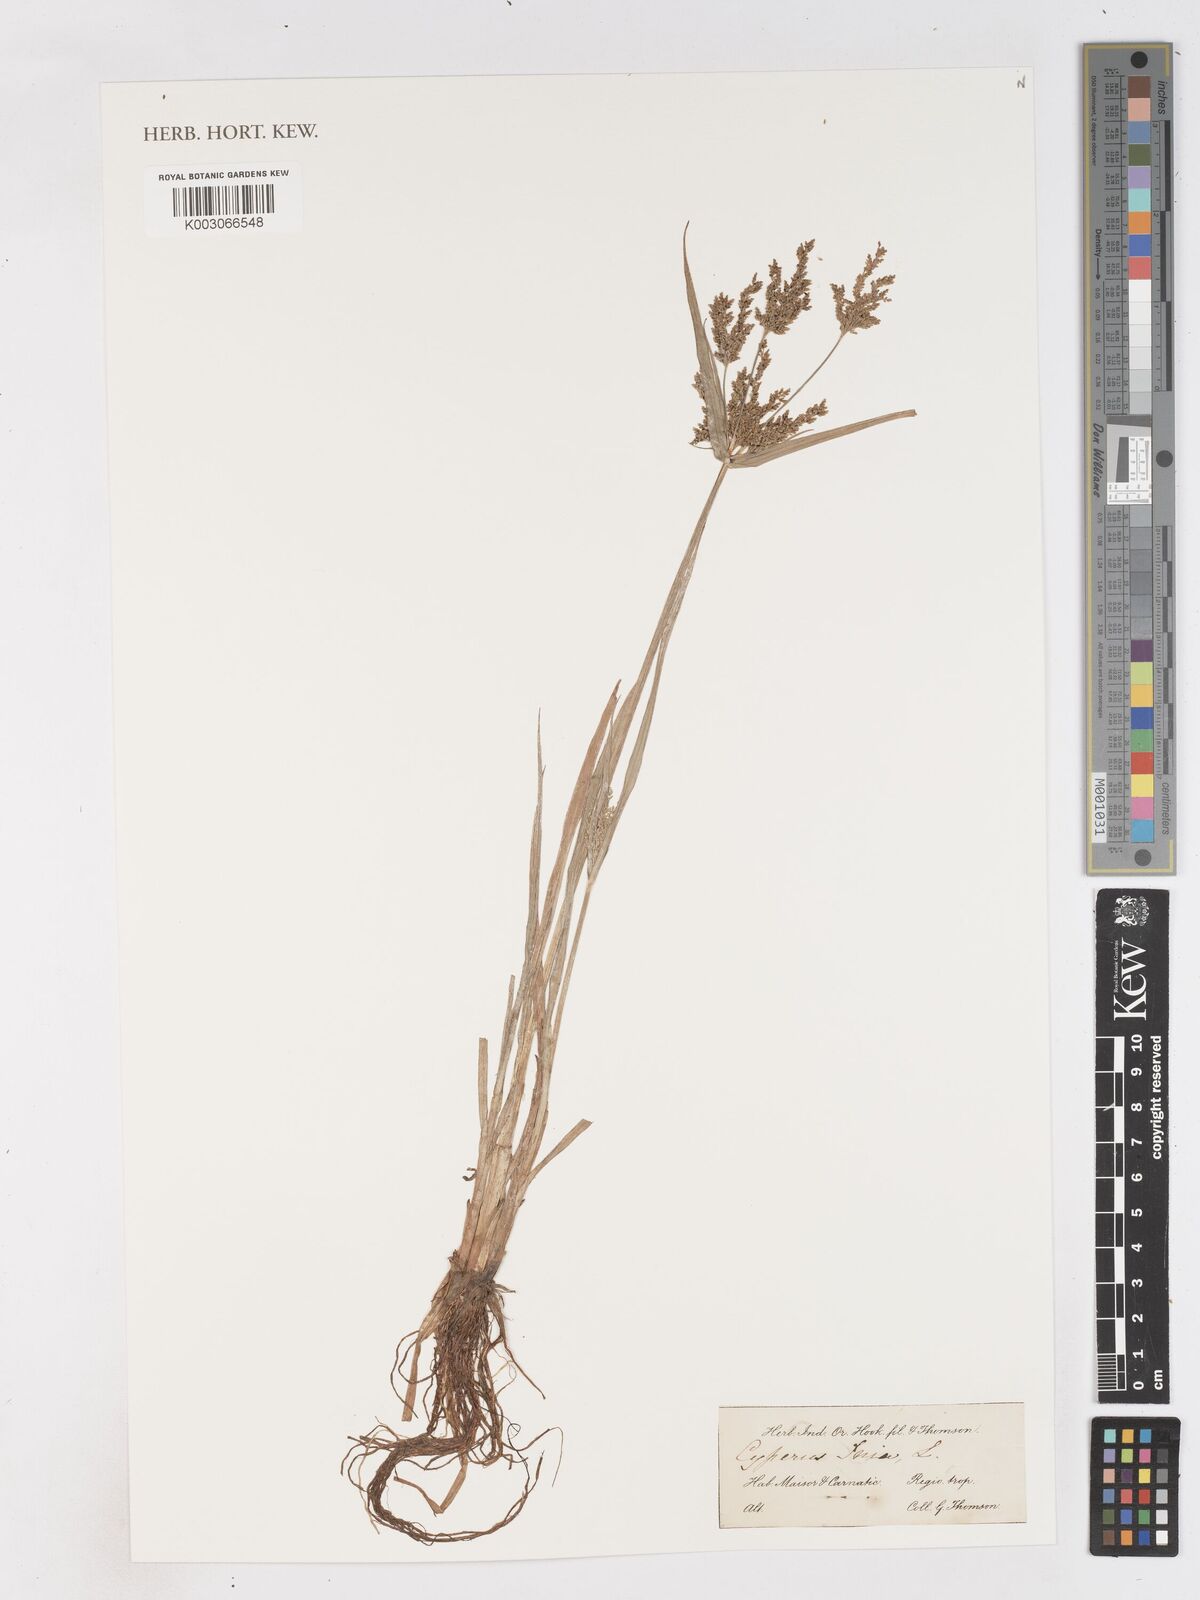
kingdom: Plantae
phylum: Tracheophyta
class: Liliopsida
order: Poales
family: Cyperaceae
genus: Cyperus
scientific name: Cyperus iria
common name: Ricefield flatsedge
